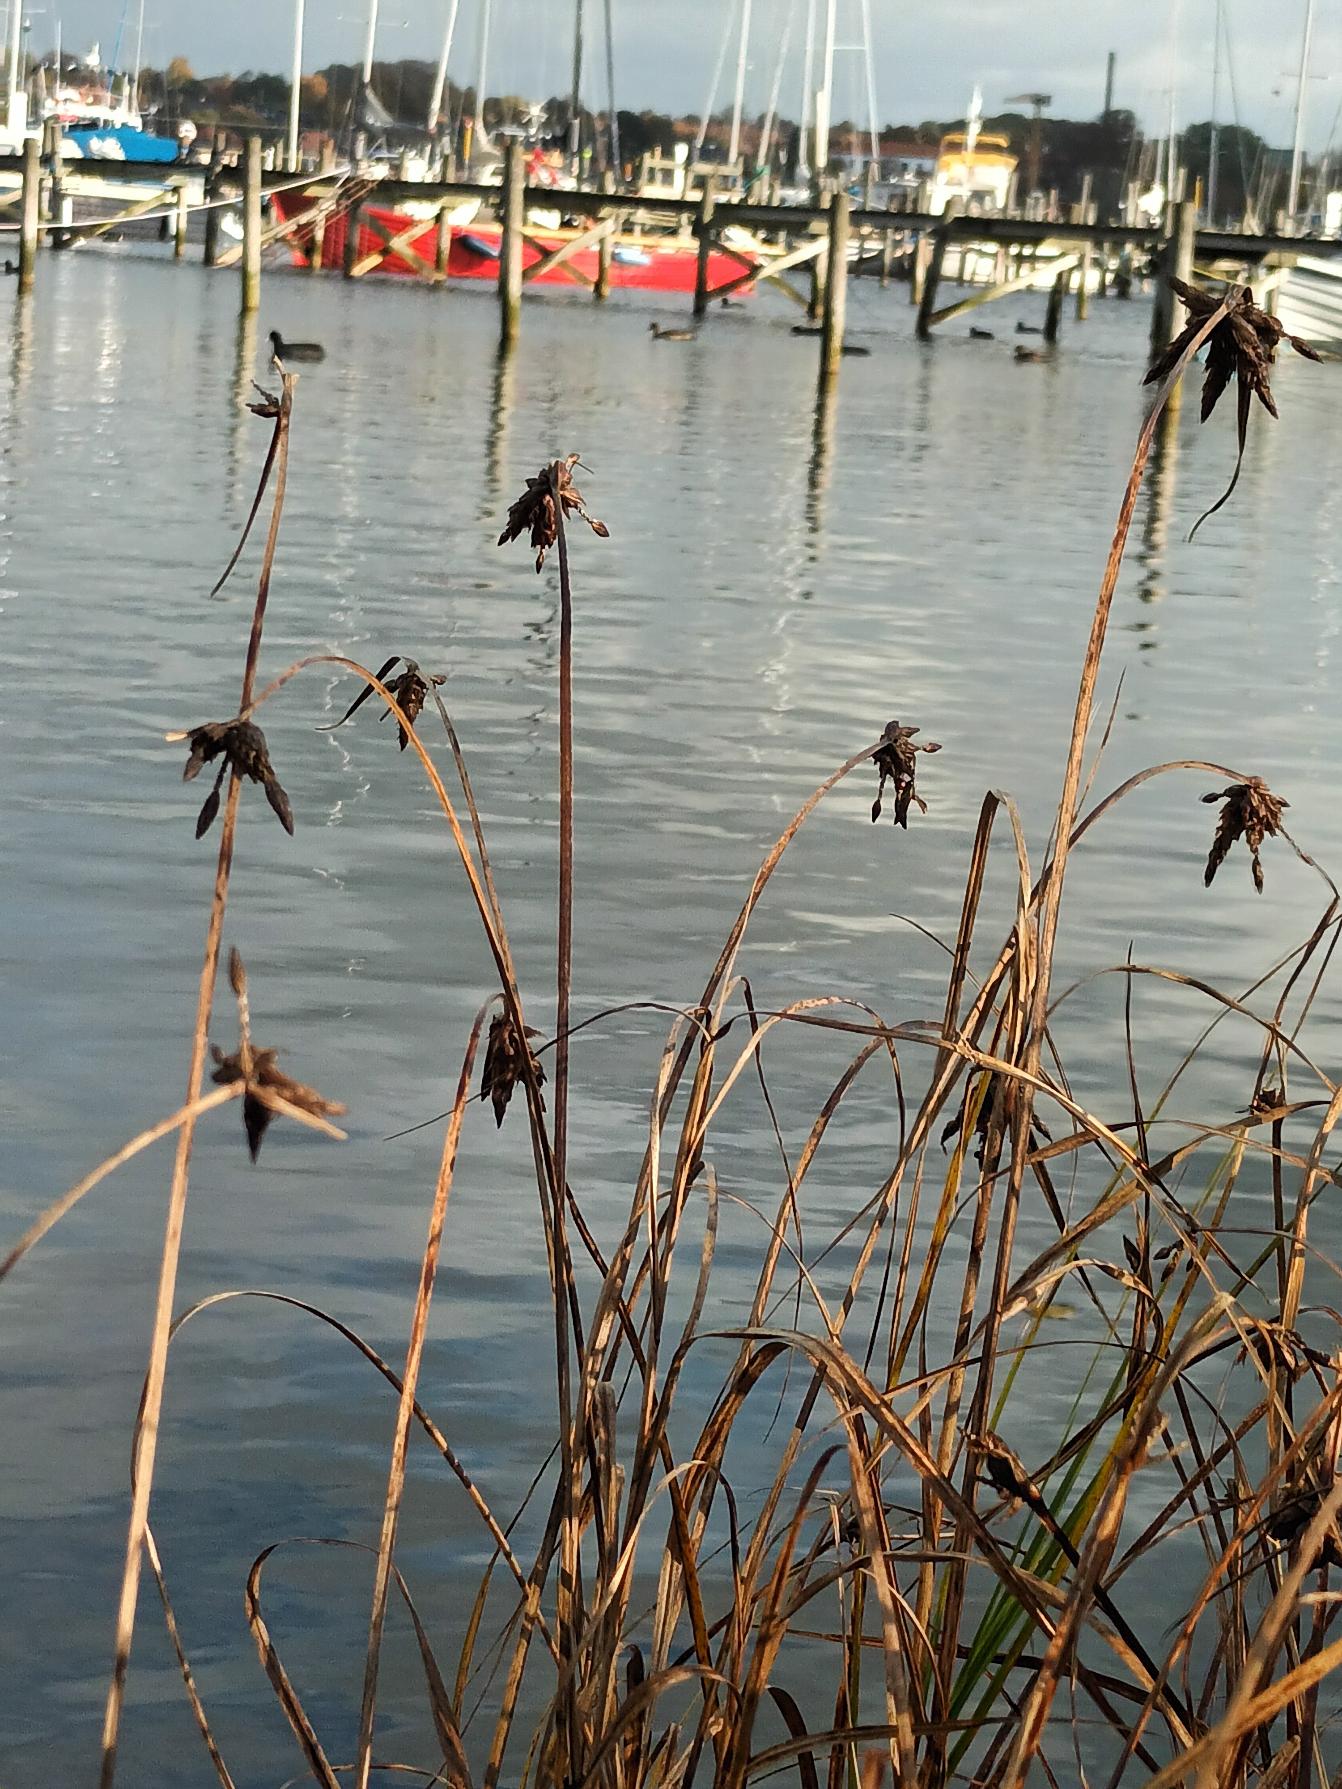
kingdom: Plantae
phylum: Tracheophyta
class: Liliopsida
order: Poales
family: Cyperaceae
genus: Bolboschoenus
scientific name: Bolboschoenus maritimus
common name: Strand-kogleaks
